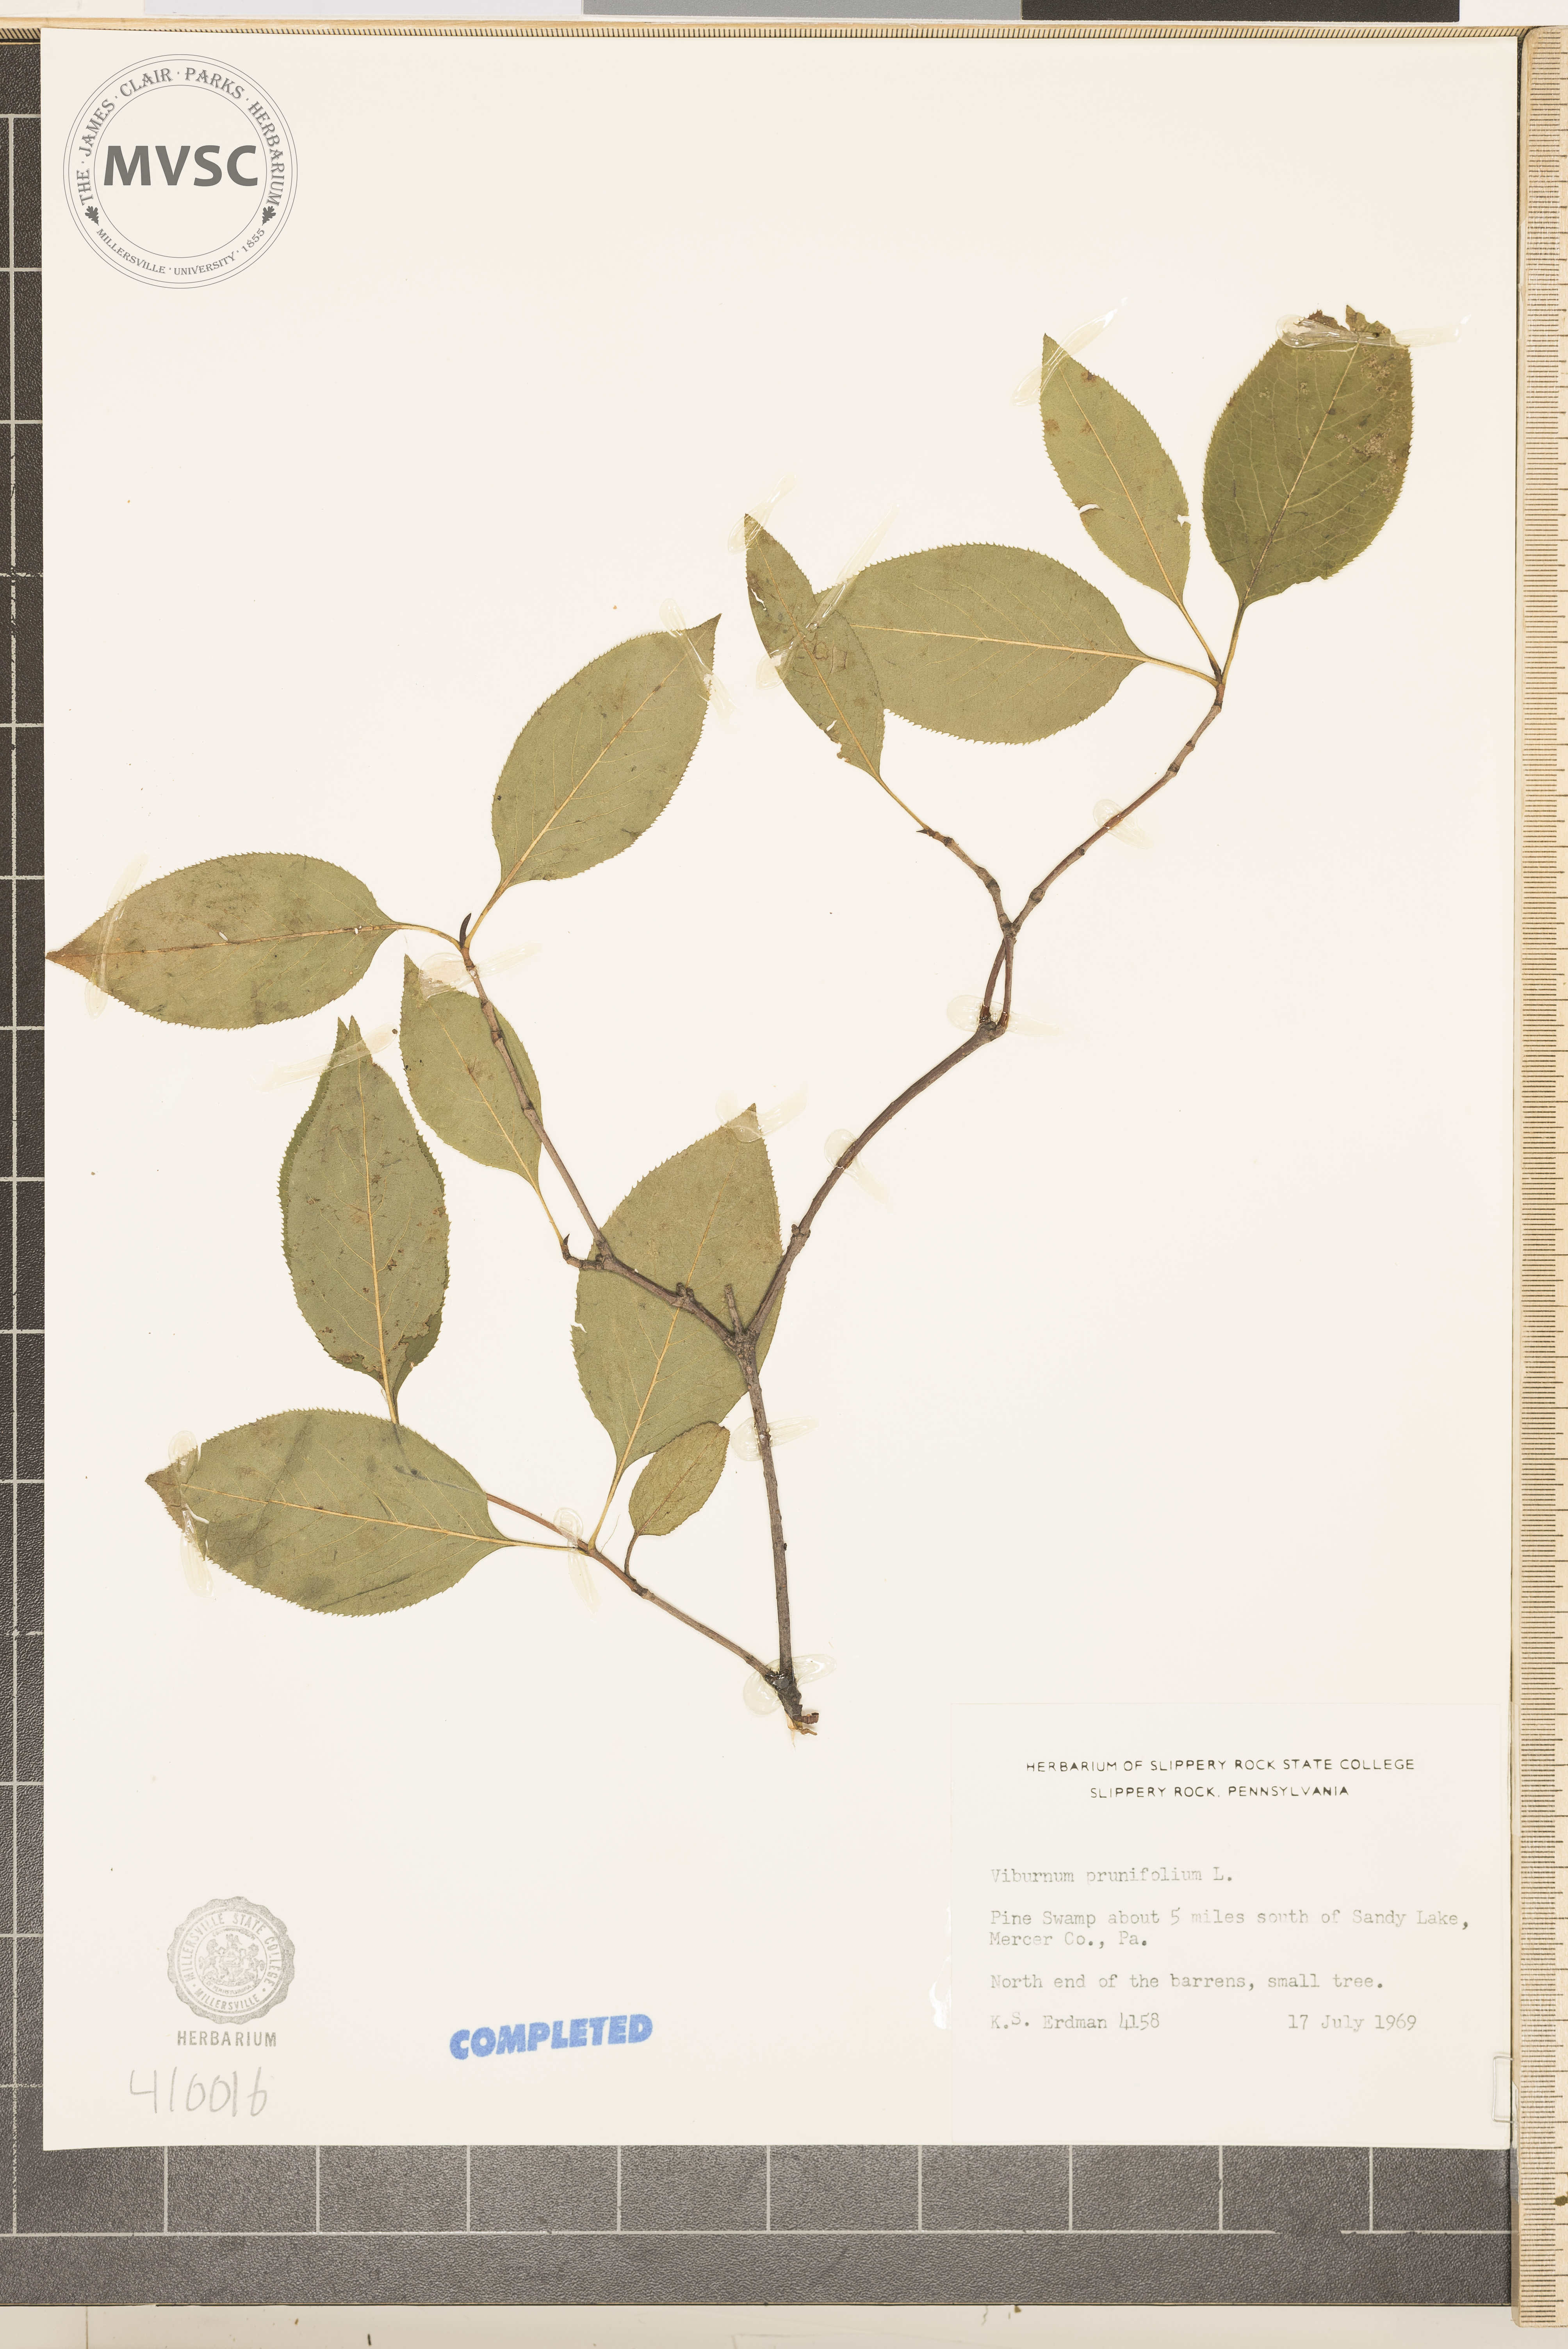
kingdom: Plantae
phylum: Tracheophyta
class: Magnoliopsida
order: Dipsacales
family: Viburnaceae
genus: Viburnum
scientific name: Viburnum lentago
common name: Black haw
